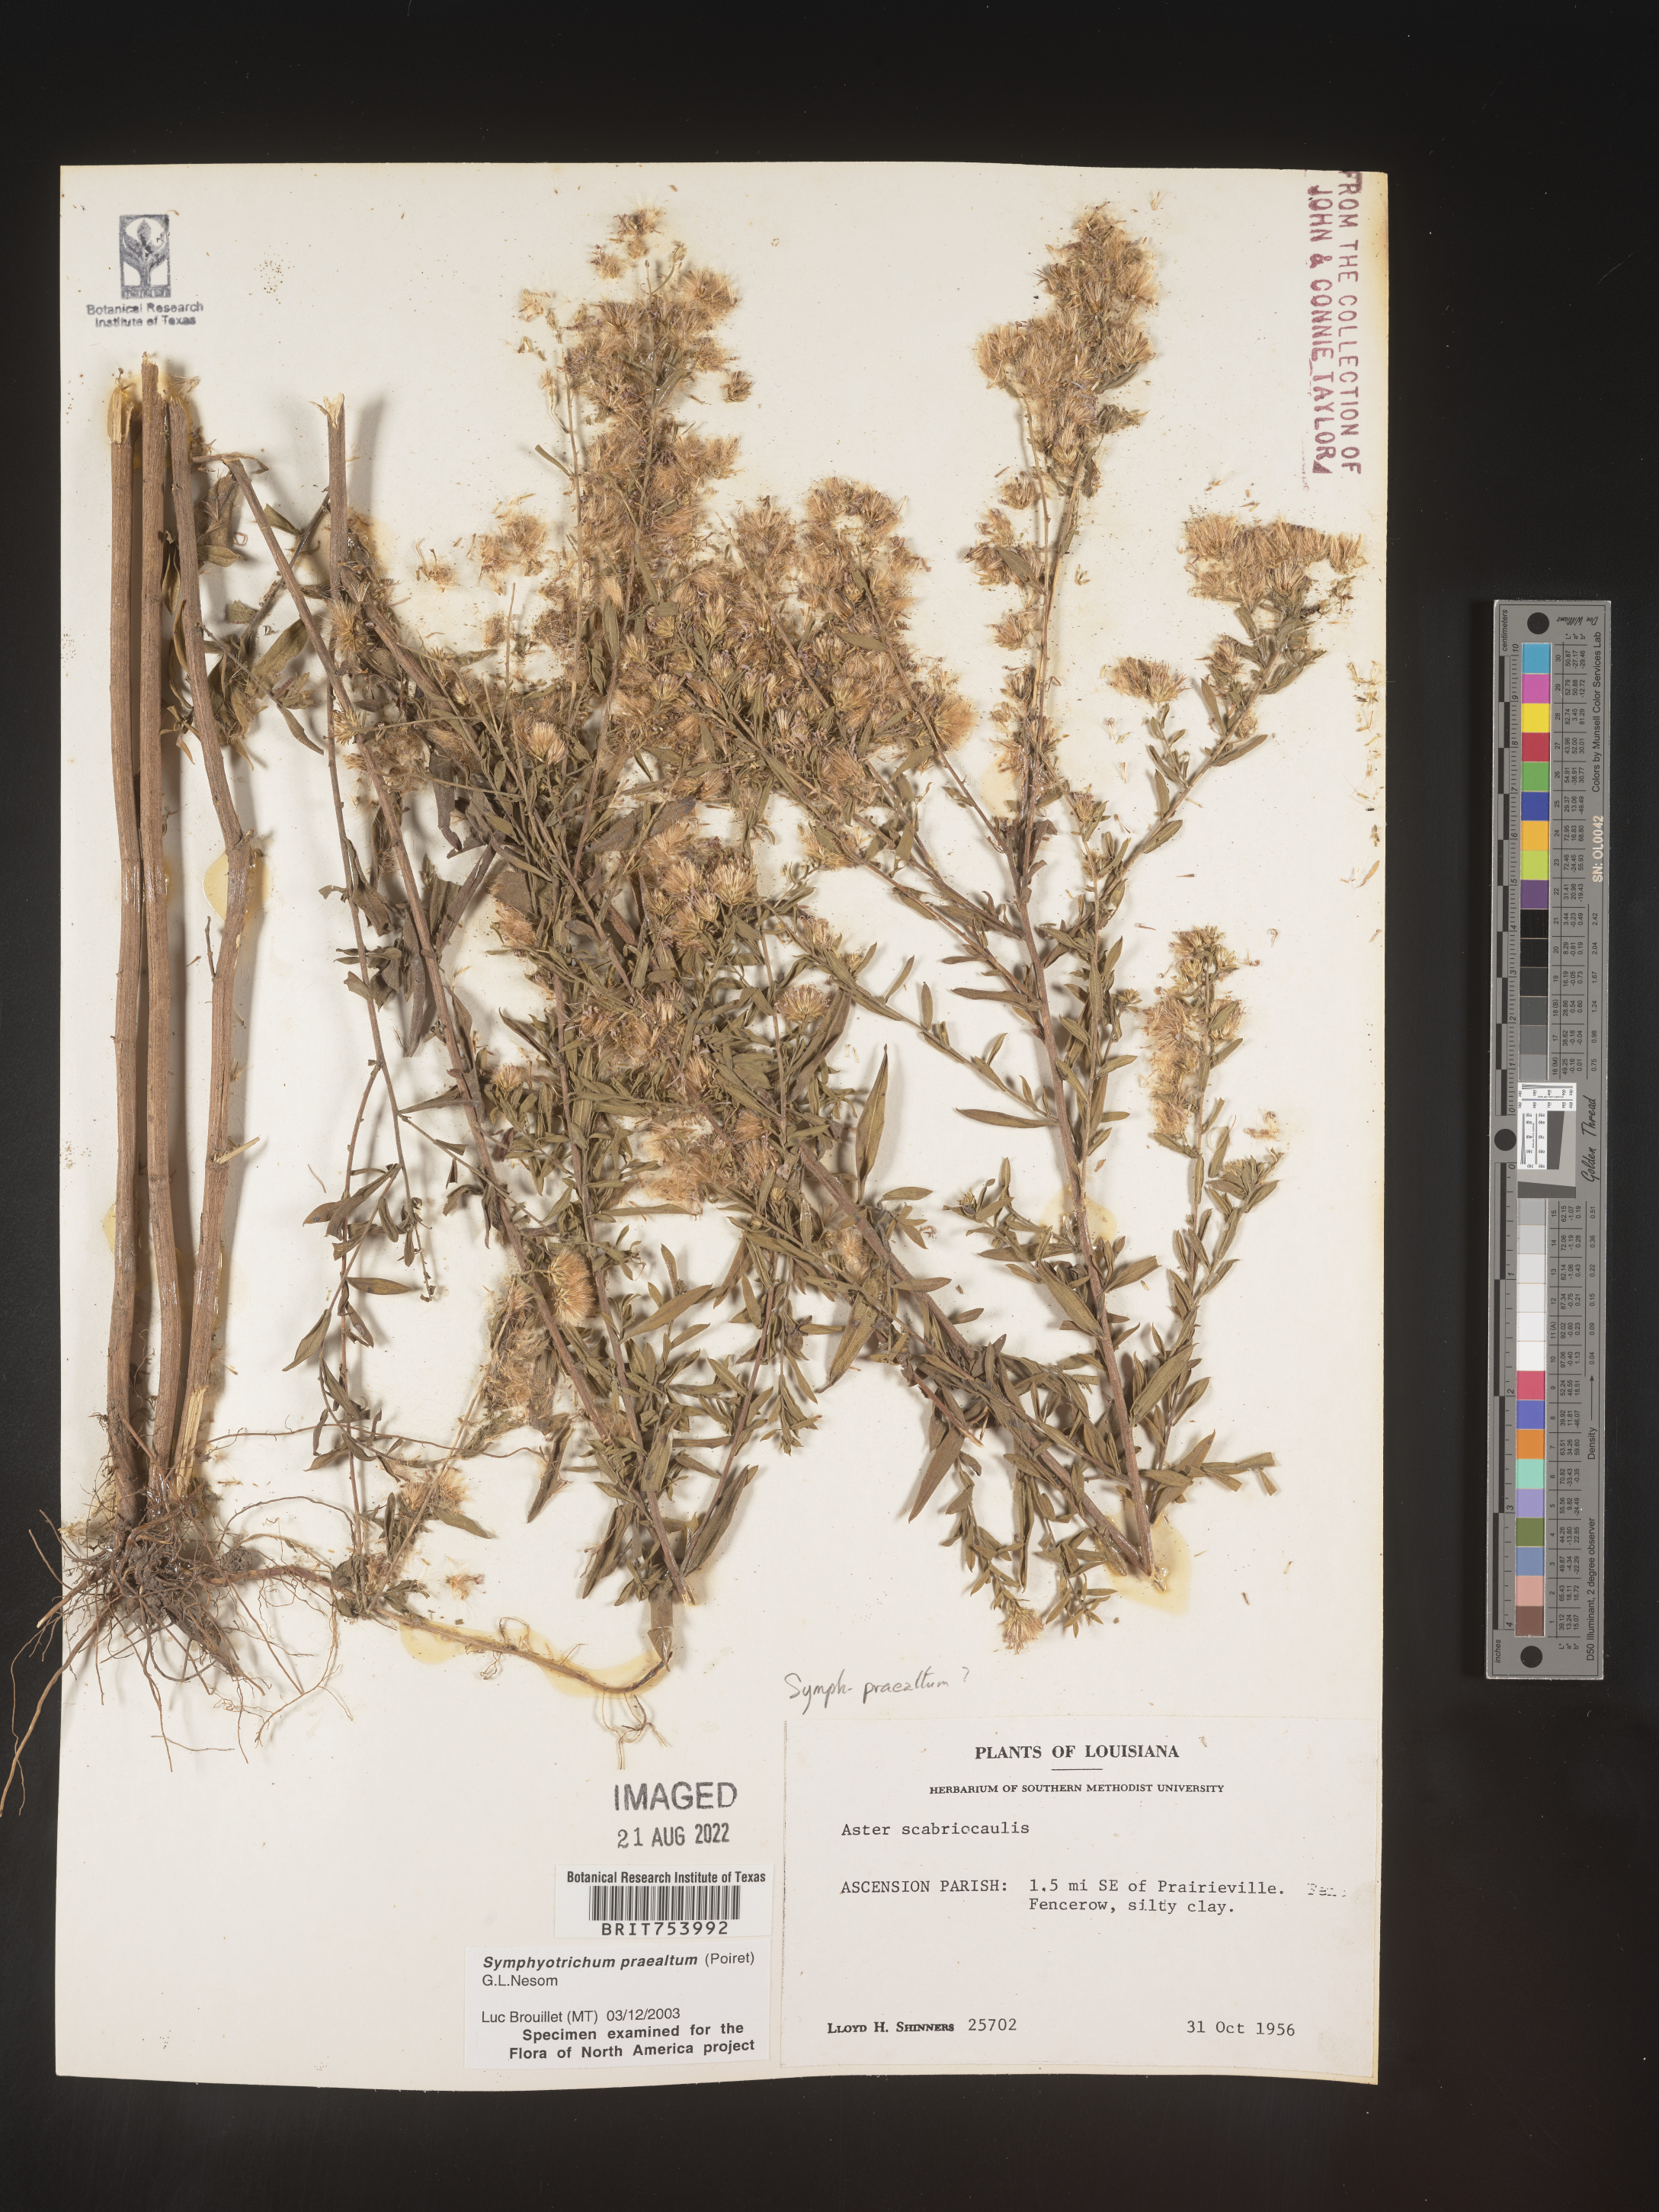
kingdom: Plantae
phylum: Tracheophyta
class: Magnoliopsida
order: Asterales
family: Asteraceae
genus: Symphyotrichum
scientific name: Symphyotrichum praealtum
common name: Willow aster
